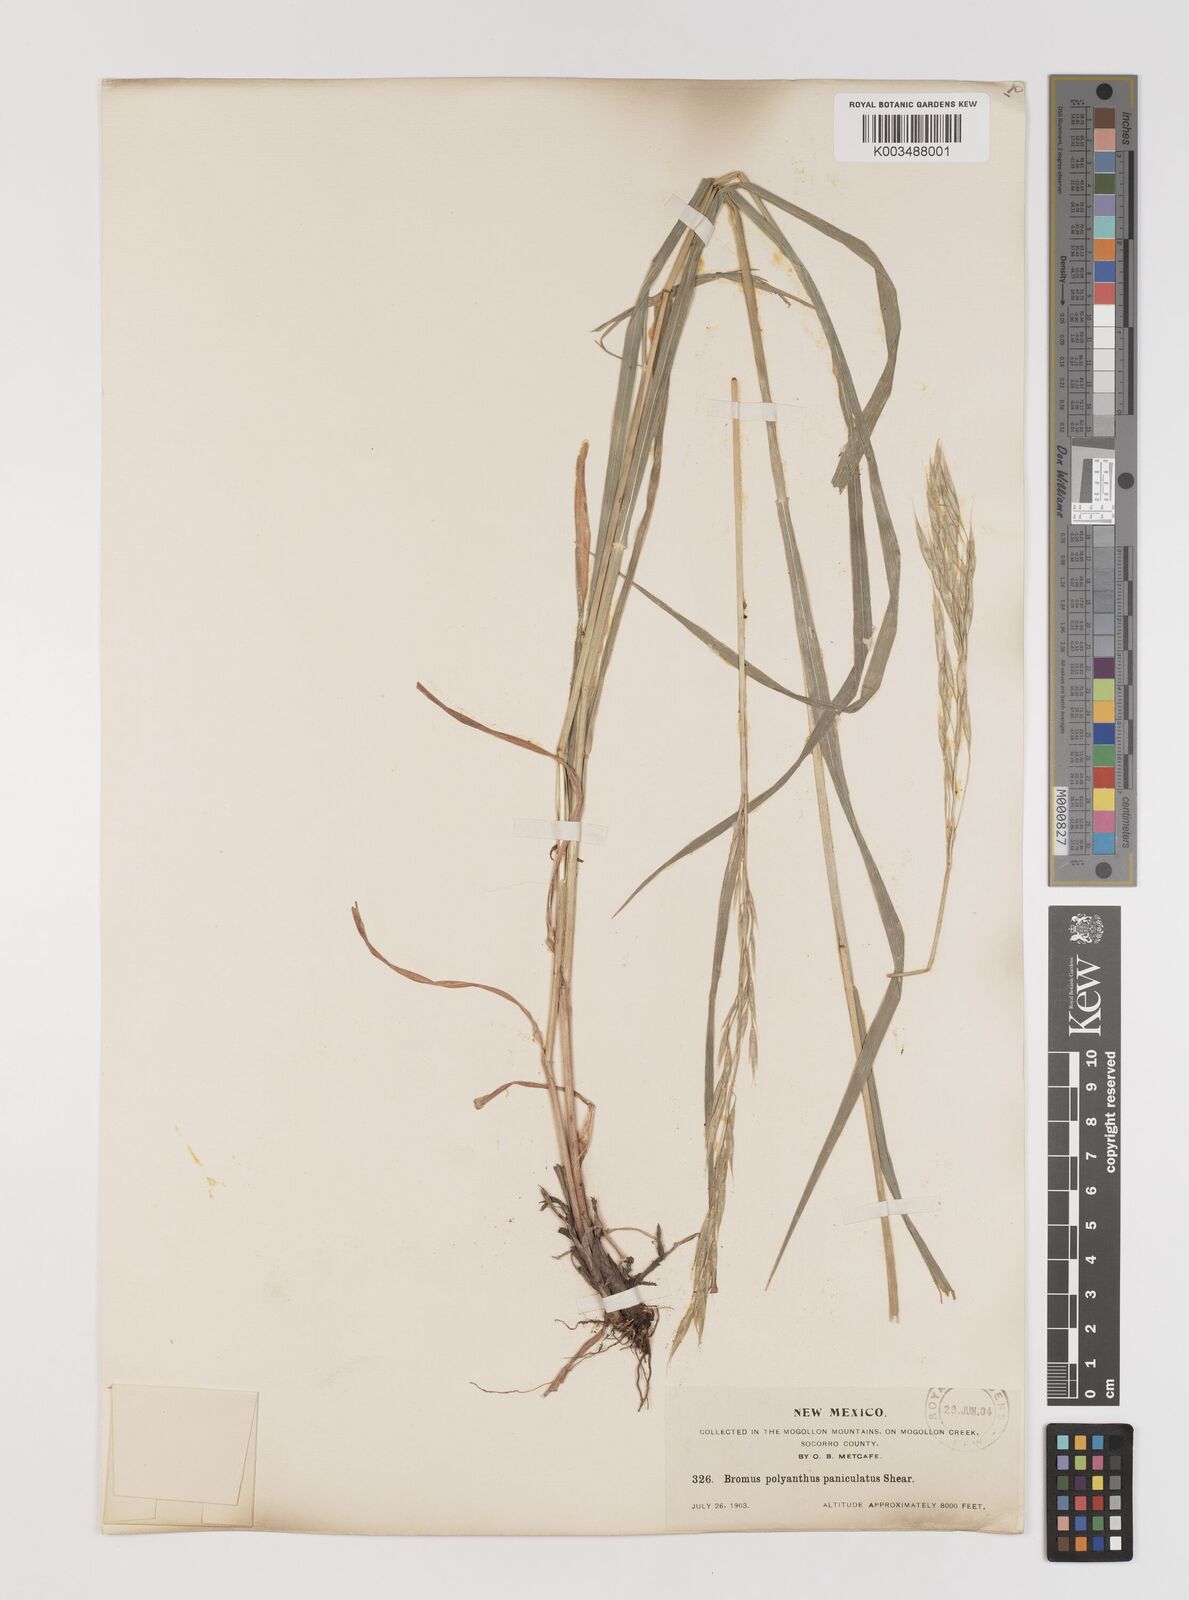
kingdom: Plantae
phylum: Tracheophyta
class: Liliopsida
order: Poales
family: Poaceae
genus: Bromus
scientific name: Bromus polyanthus
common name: Great basin brome
